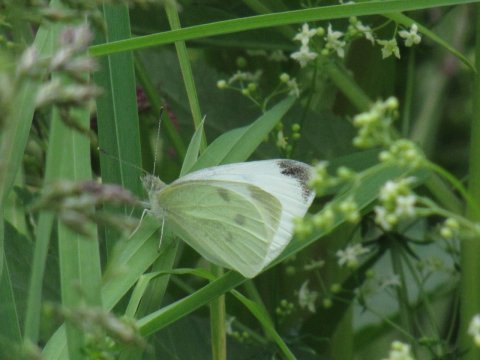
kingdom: Animalia
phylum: Arthropoda
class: Insecta
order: Lepidoptera
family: Pieridae
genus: Pieris
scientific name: Pieris rapae
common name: Cabbage White
